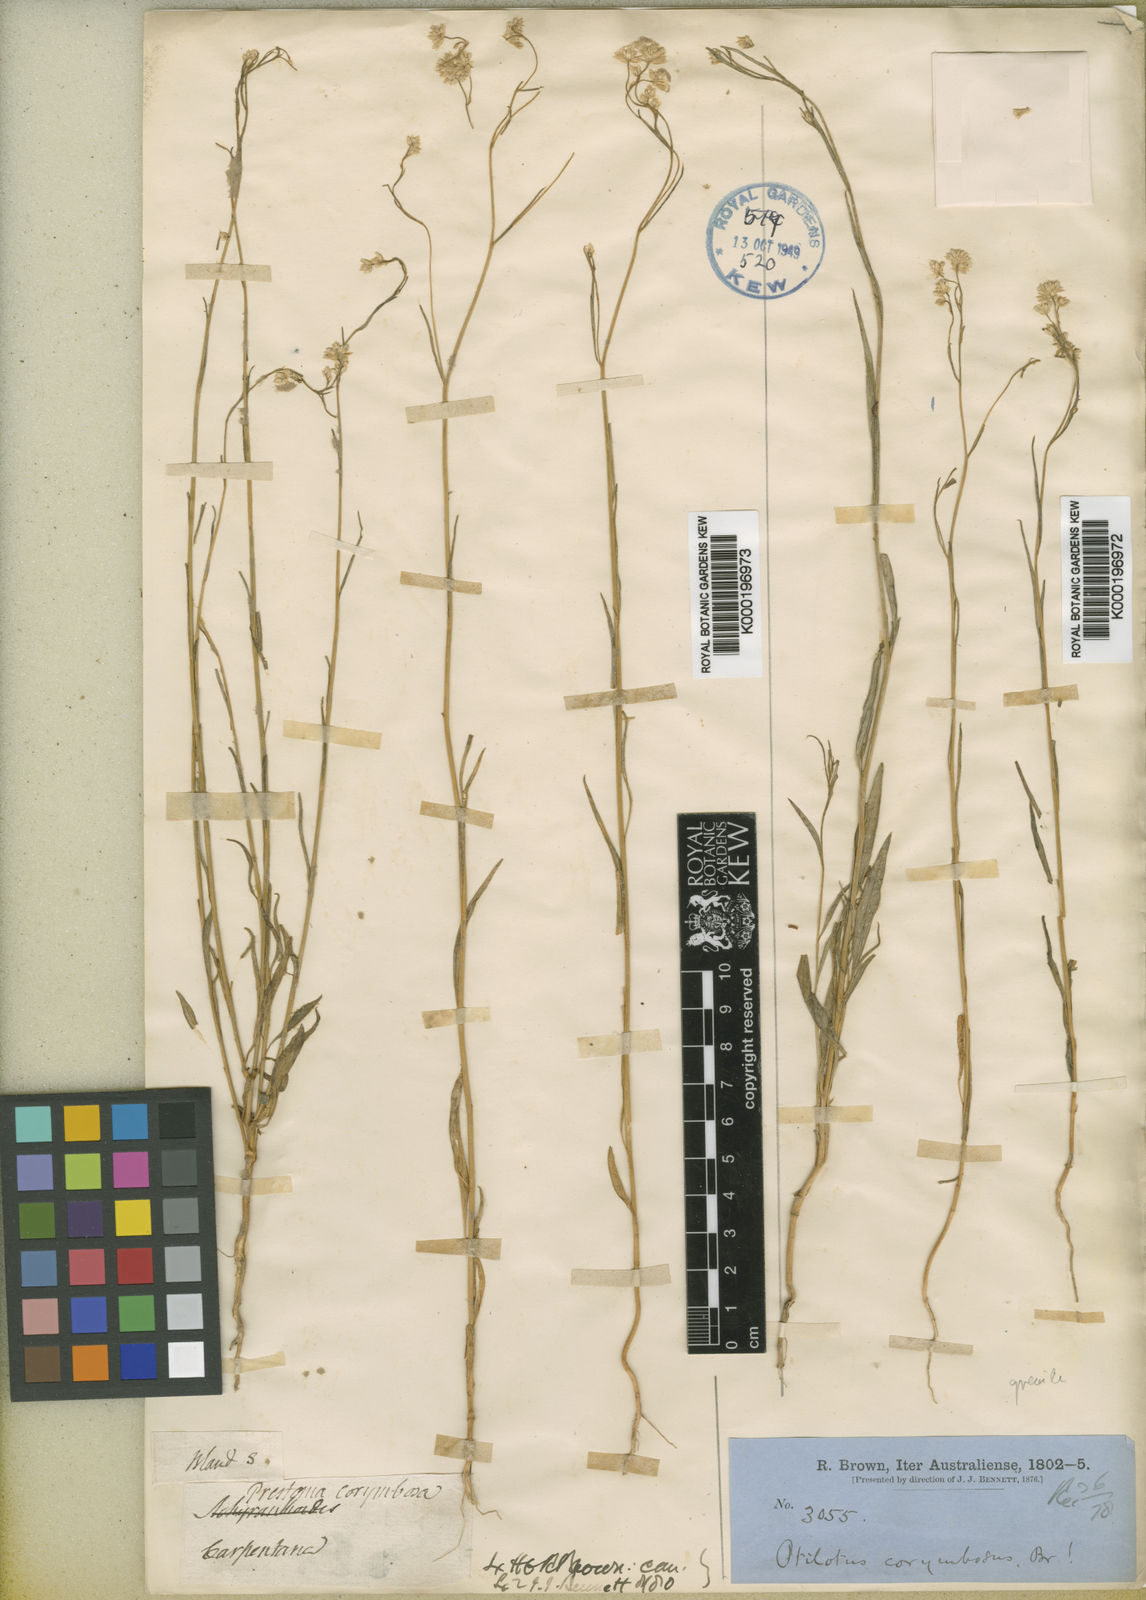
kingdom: Plantae
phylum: Tracheophyta
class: Magnoliopsida
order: Caryophyllales
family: Amaranthaceae
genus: Ptilotus
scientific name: Ptilotus corymbosus
